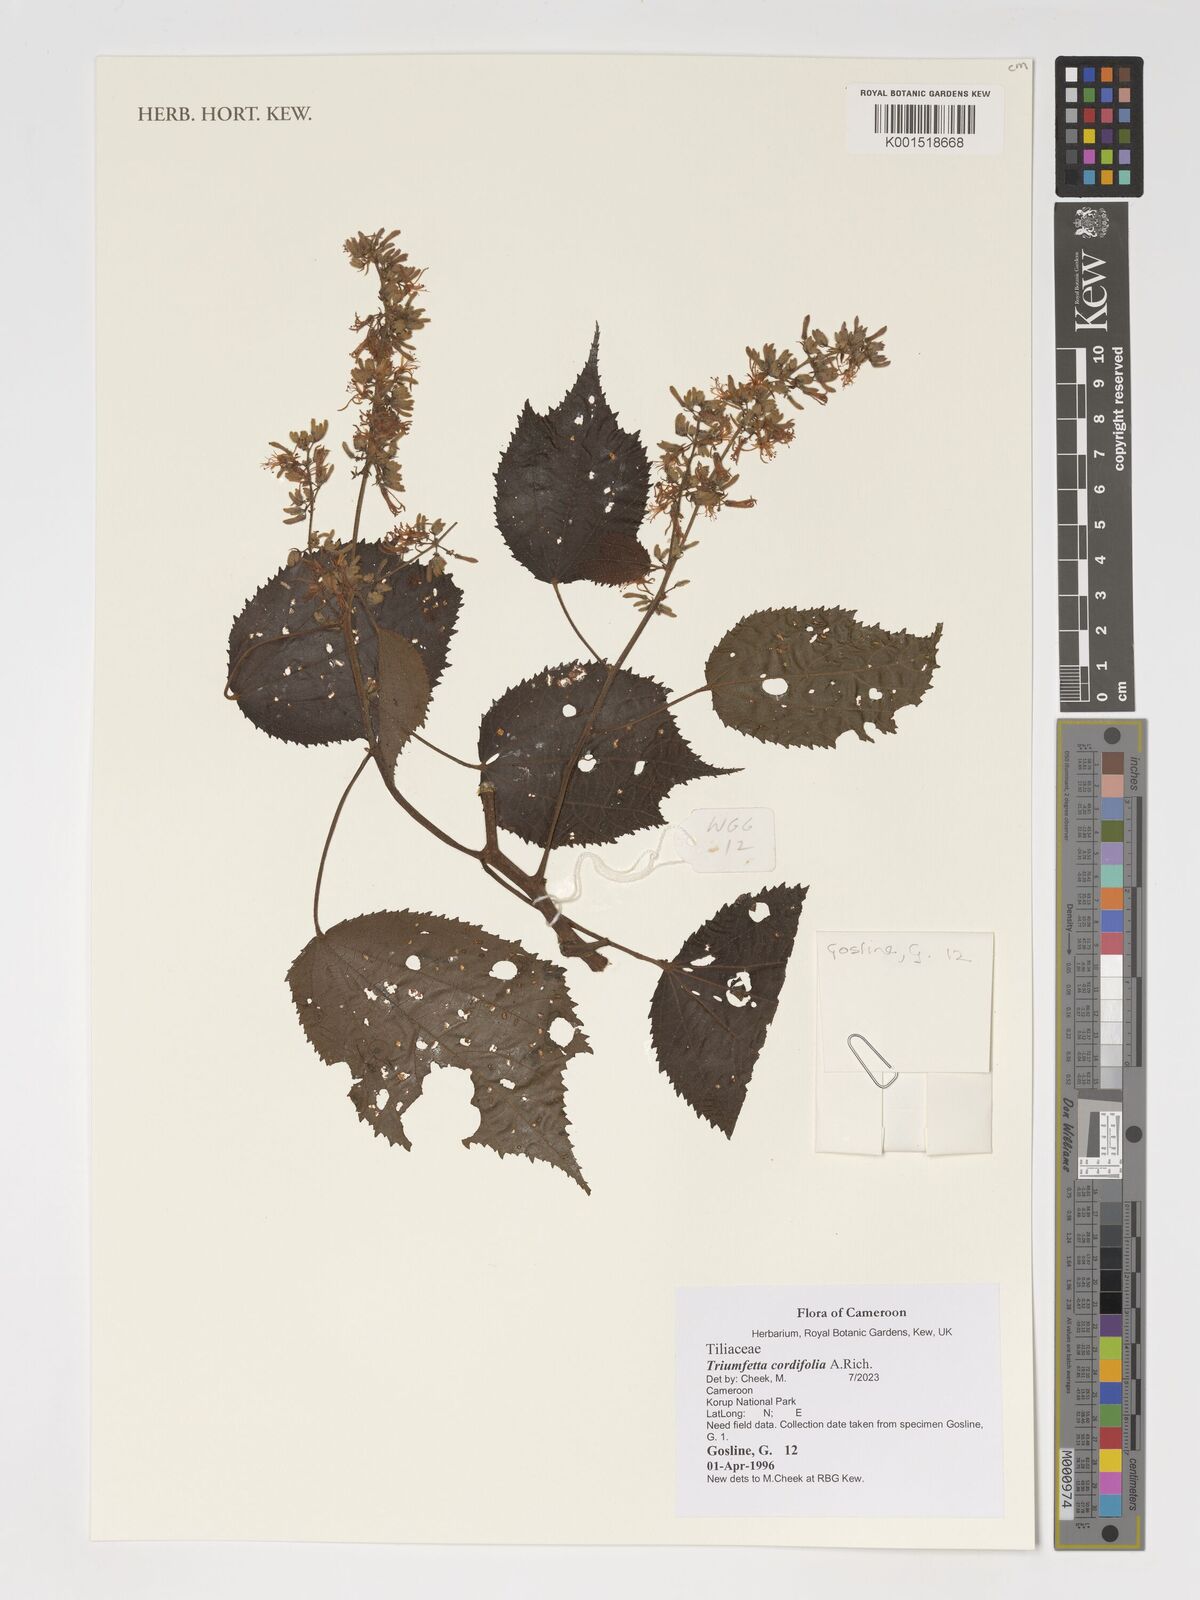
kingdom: Plantae
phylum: Tracheophyta
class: Magnoliopsida
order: Malvales
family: Malvaceae
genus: Triumfetta
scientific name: Triumfetta cordifolia
